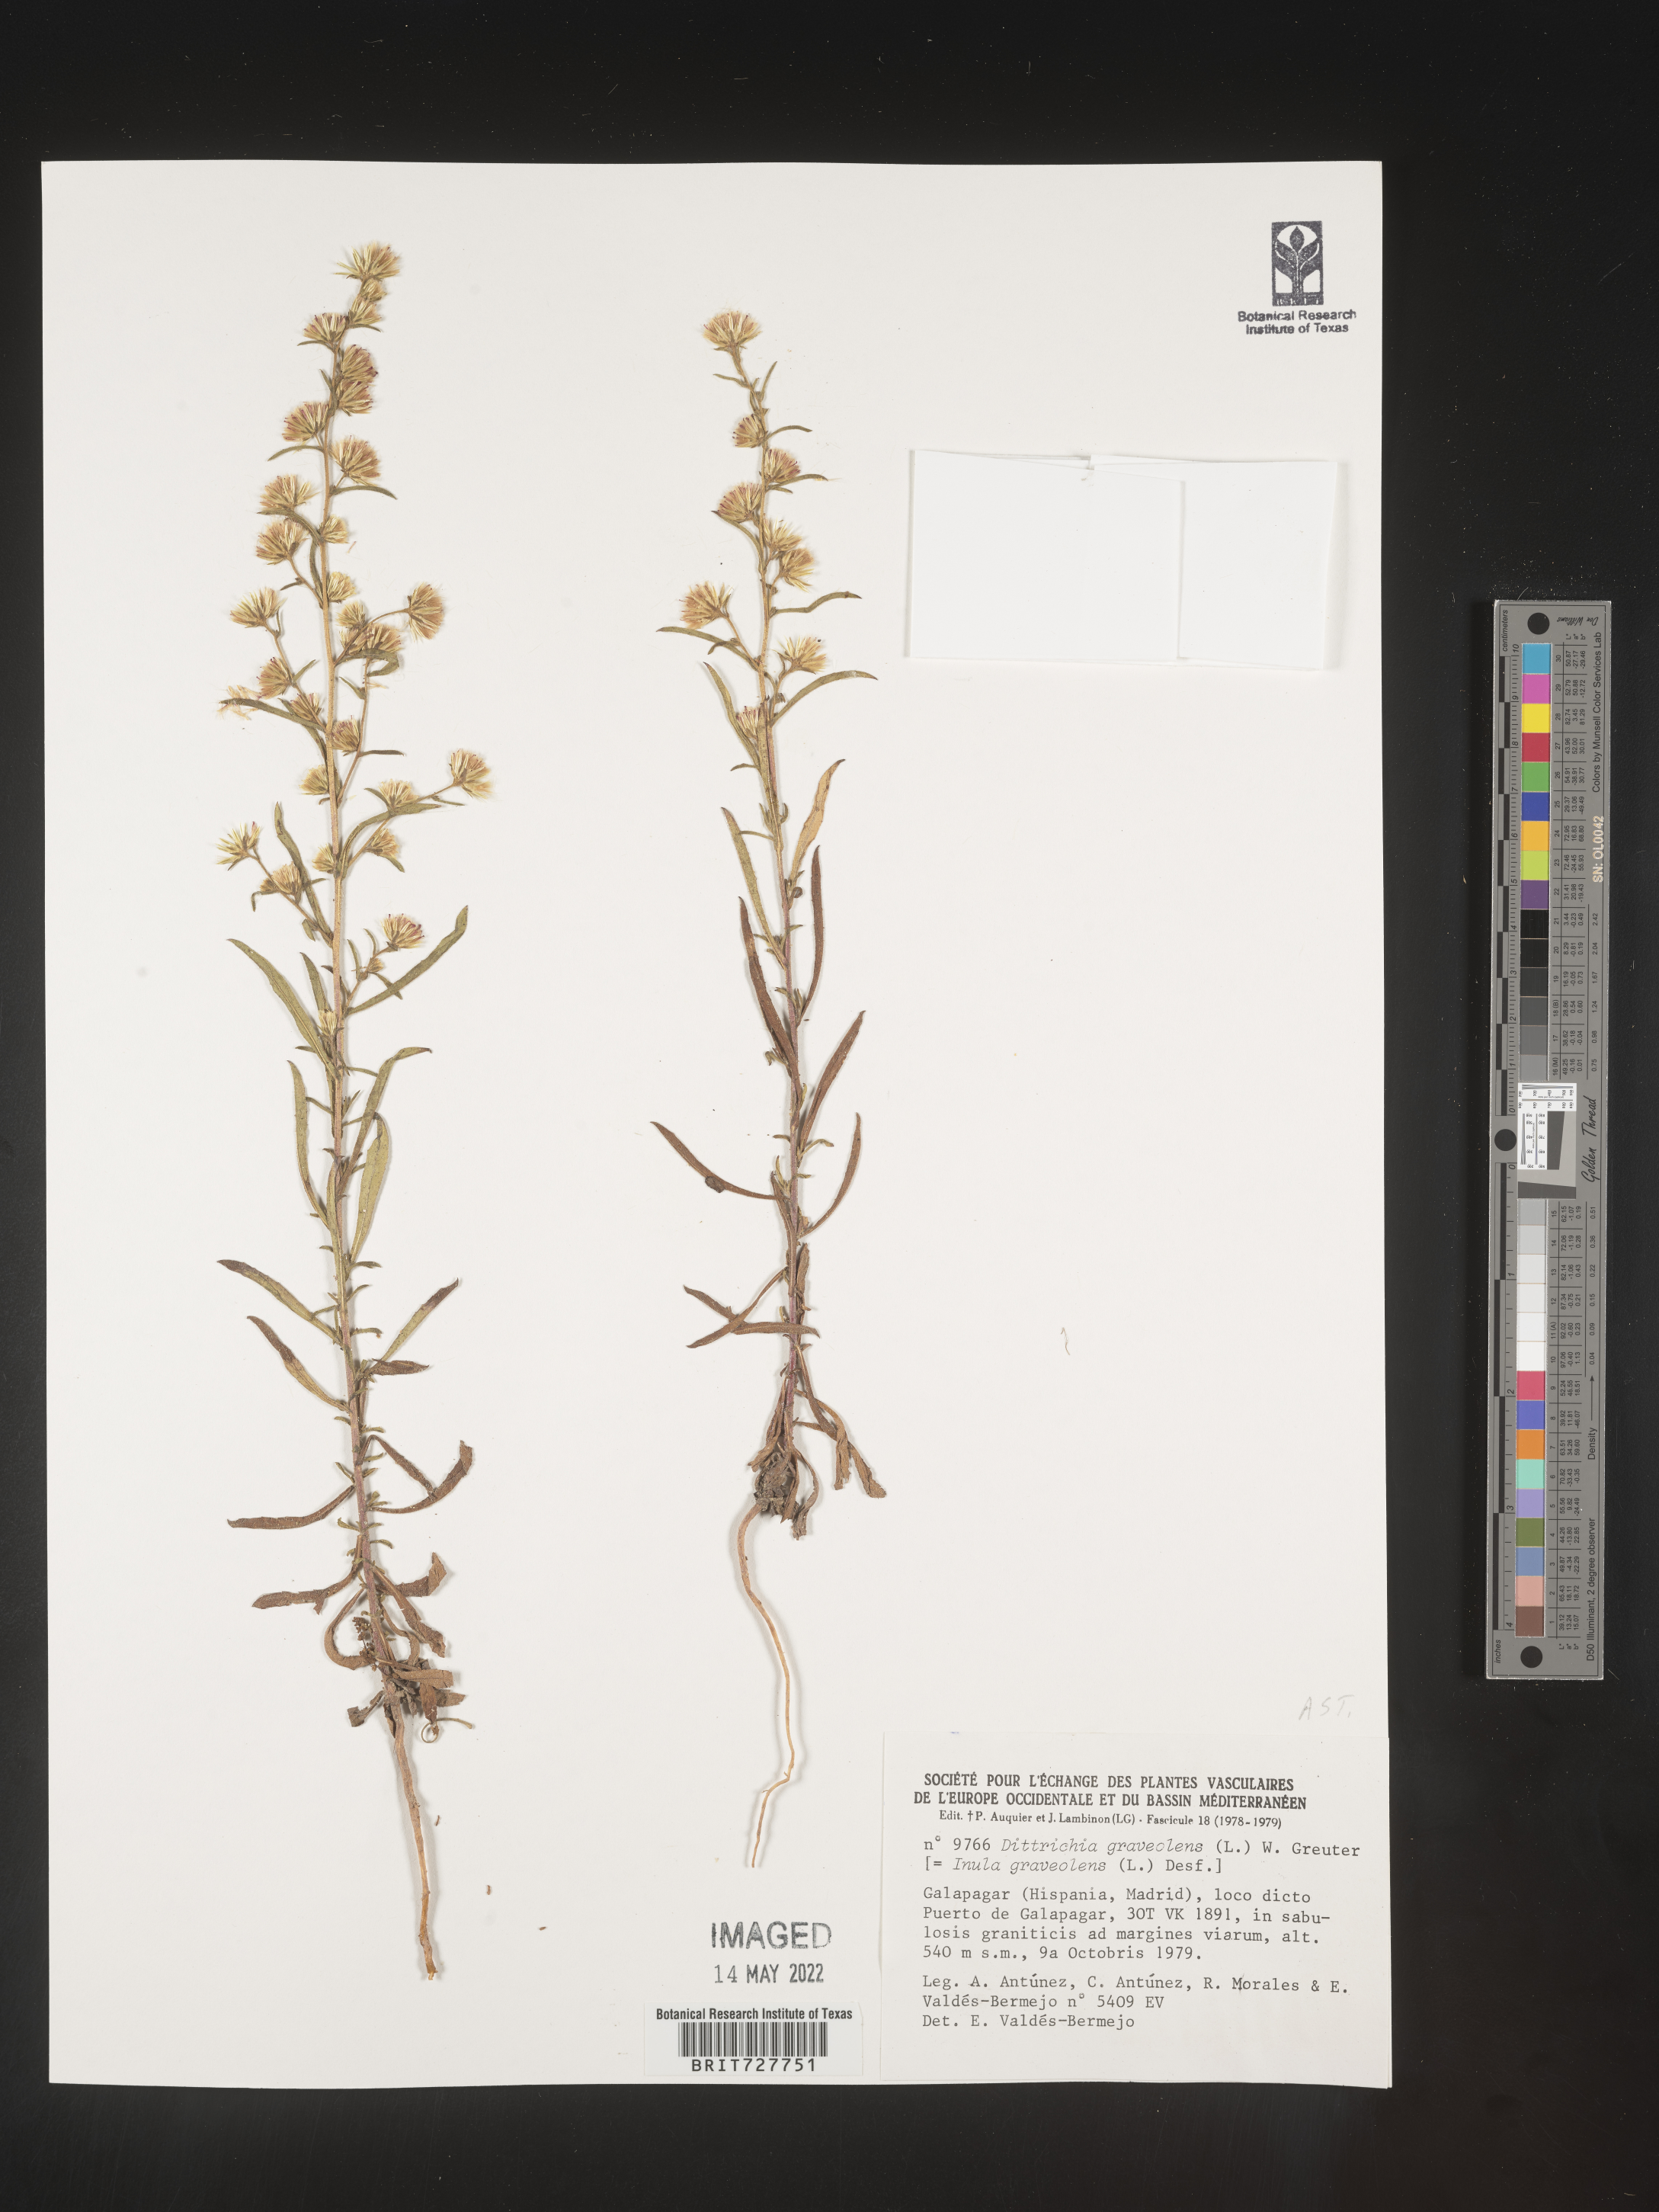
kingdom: Plantae
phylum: Tracheophyta
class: Magnoliopsida
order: Asterales
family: Asteraceae
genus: Inula
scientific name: Inula
